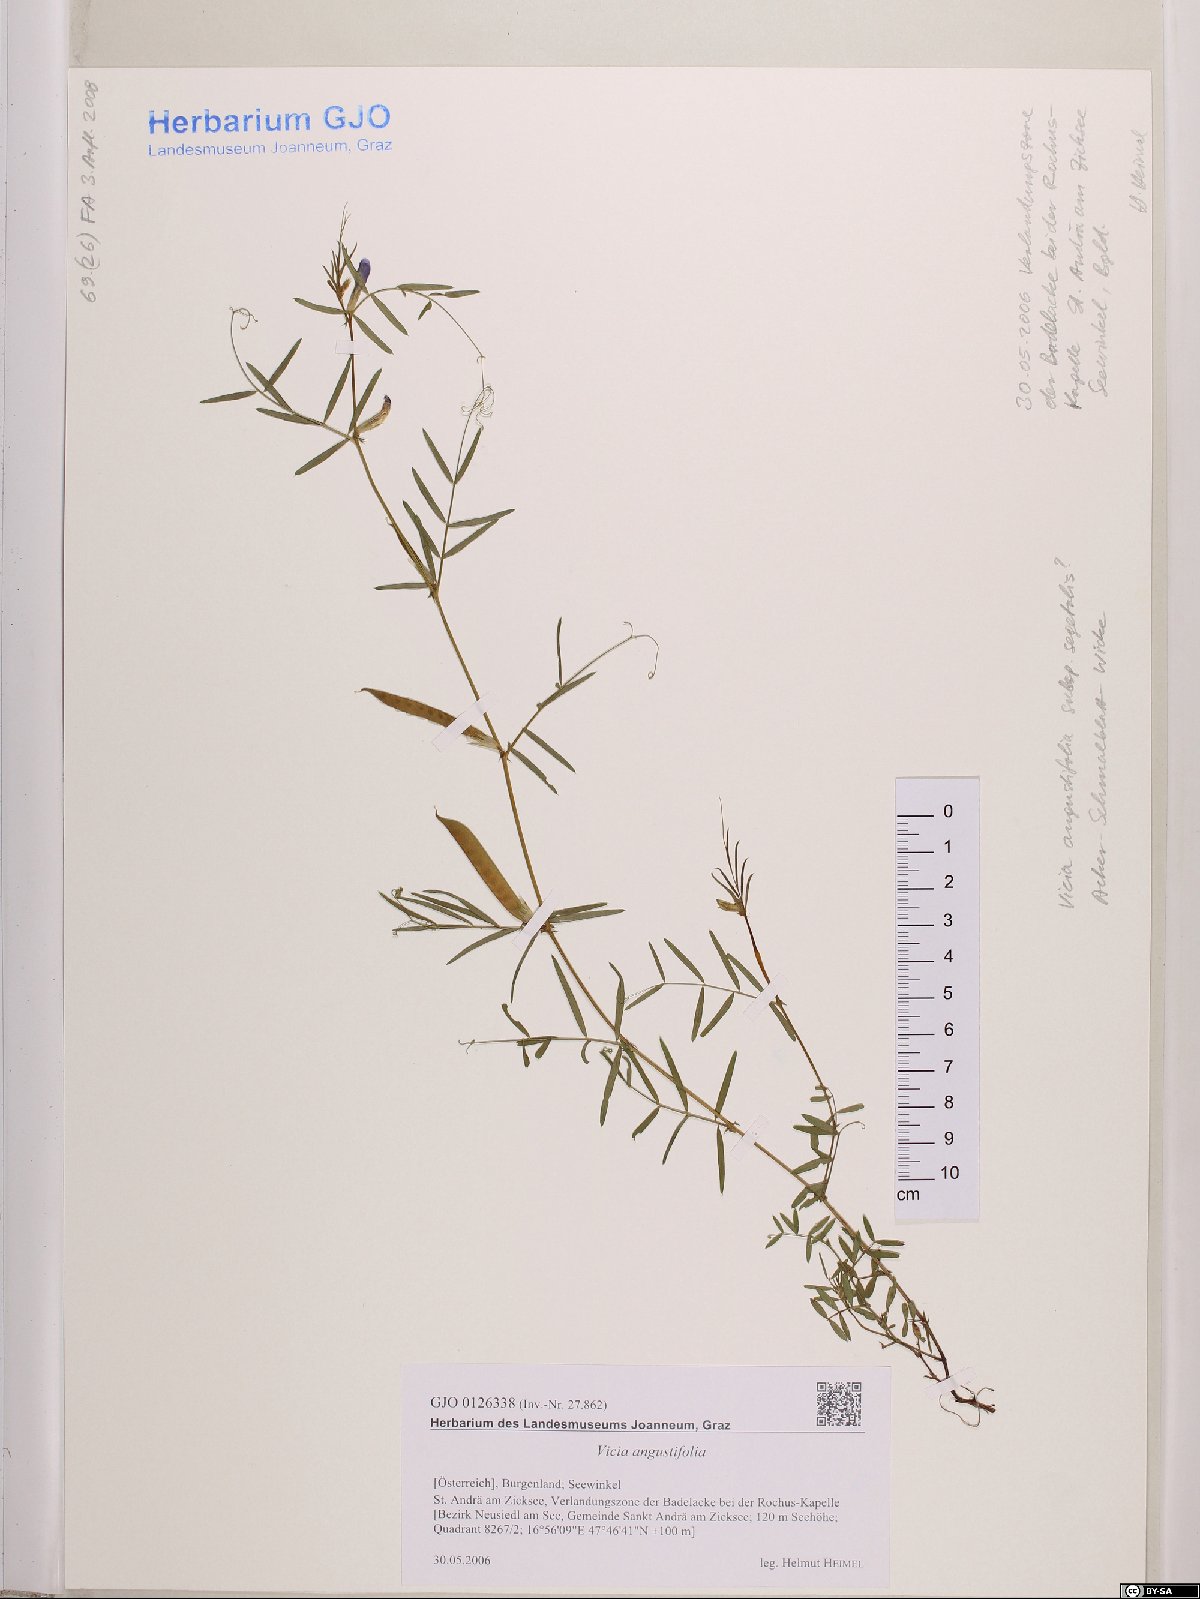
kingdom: Plantae
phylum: Tracheophyta
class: Magnoliopsida
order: Fabales
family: Fabaceae
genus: Vicia
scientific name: Vicia sativa
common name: Garden vetch
